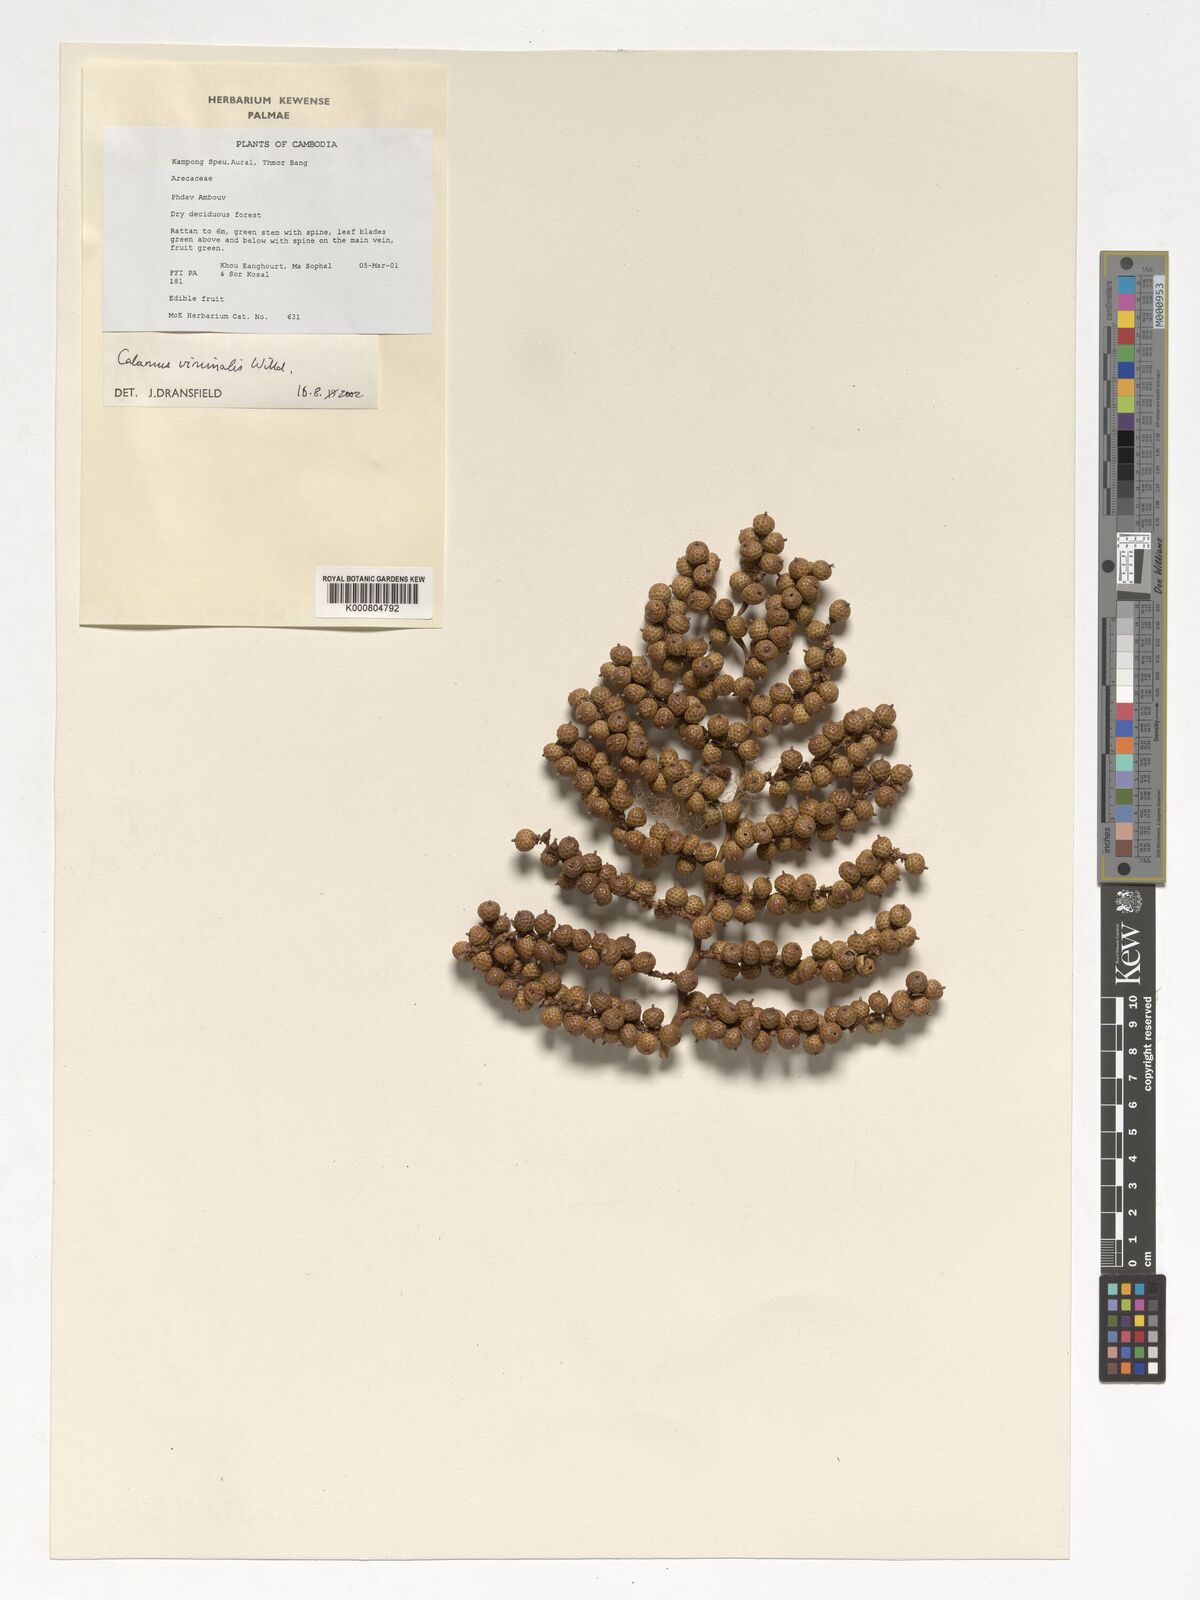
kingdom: Plantae
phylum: Tracheophyta
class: Liliopsida
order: Arecales
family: Arecaceae
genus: Calamus
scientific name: Calamus viminalis
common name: Osier-like rattan palm
